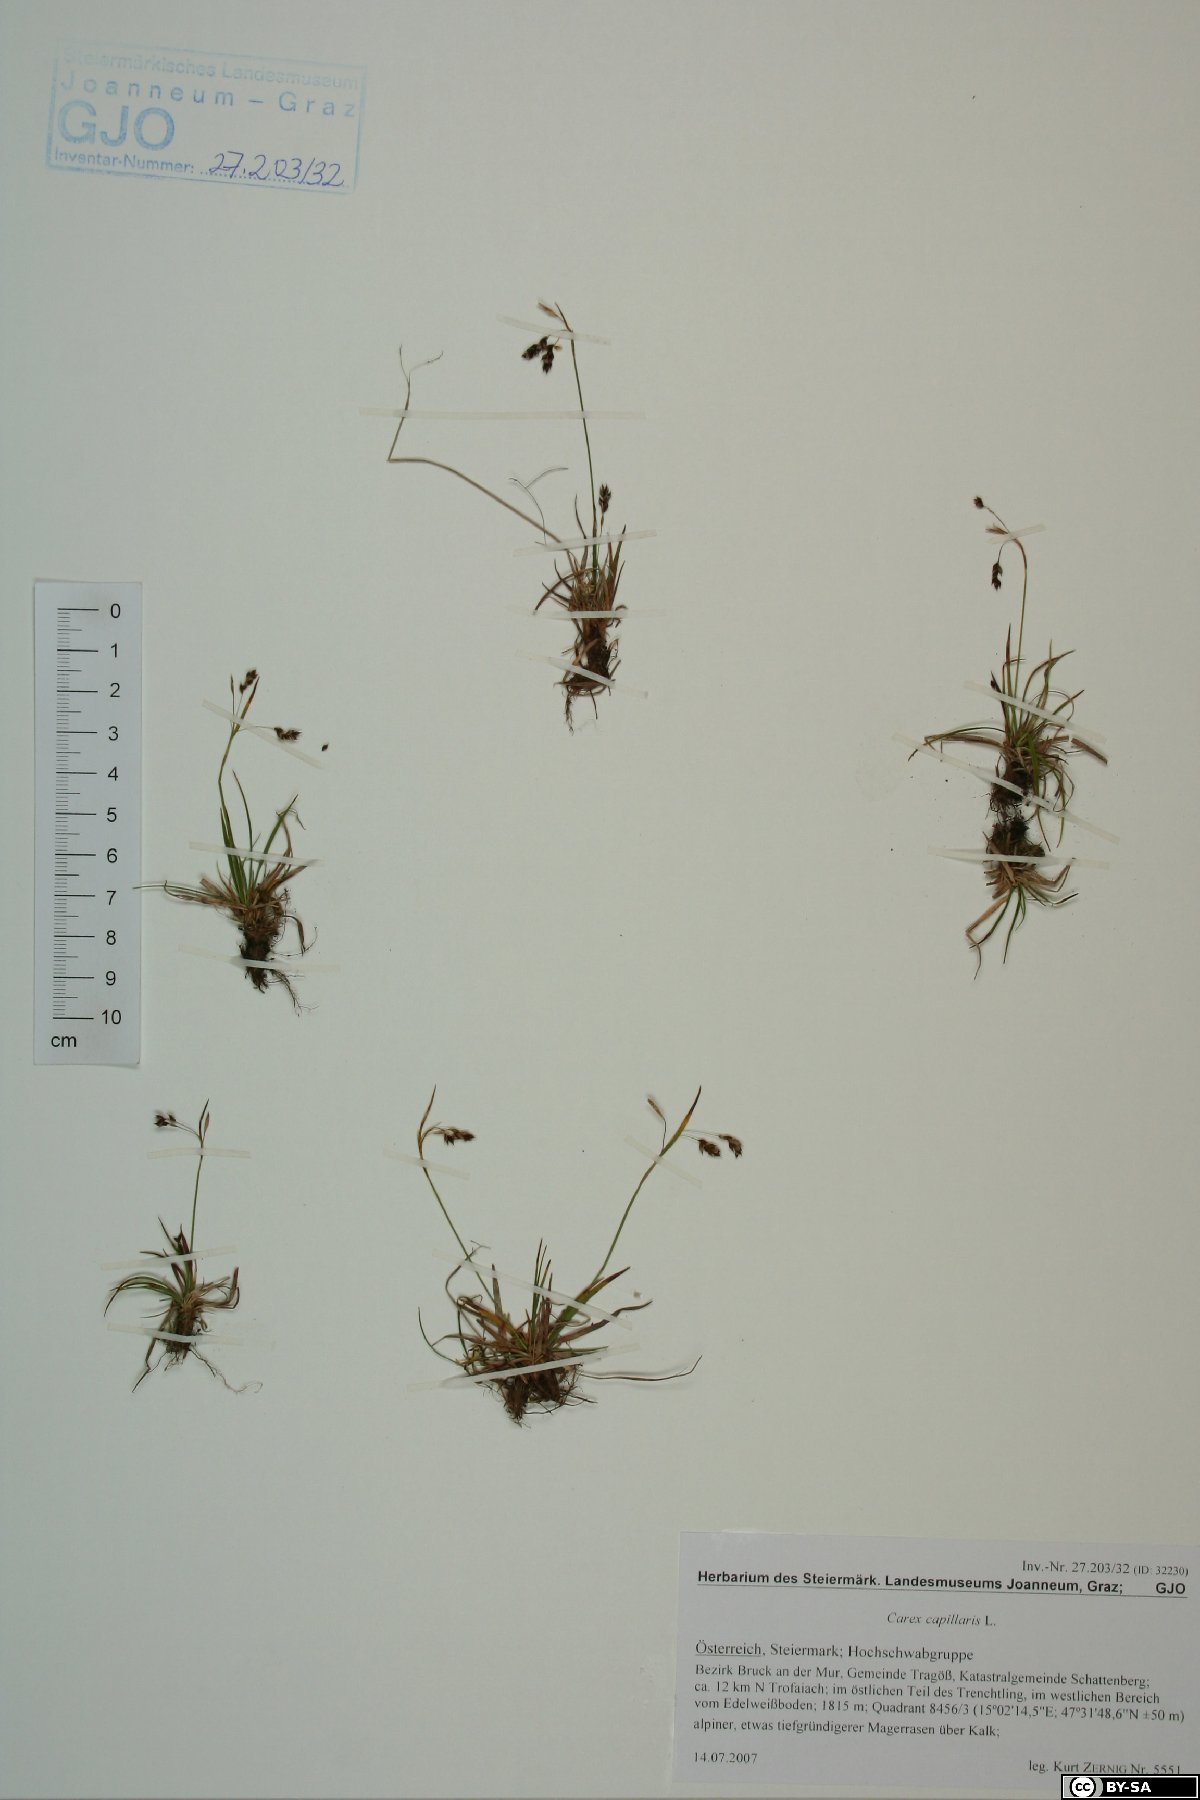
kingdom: Plantae
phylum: Tracheophyta
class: Liliopsida
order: Poales
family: Cyperaceae
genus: Carex
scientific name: Carex capillaris
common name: Hair sedge
